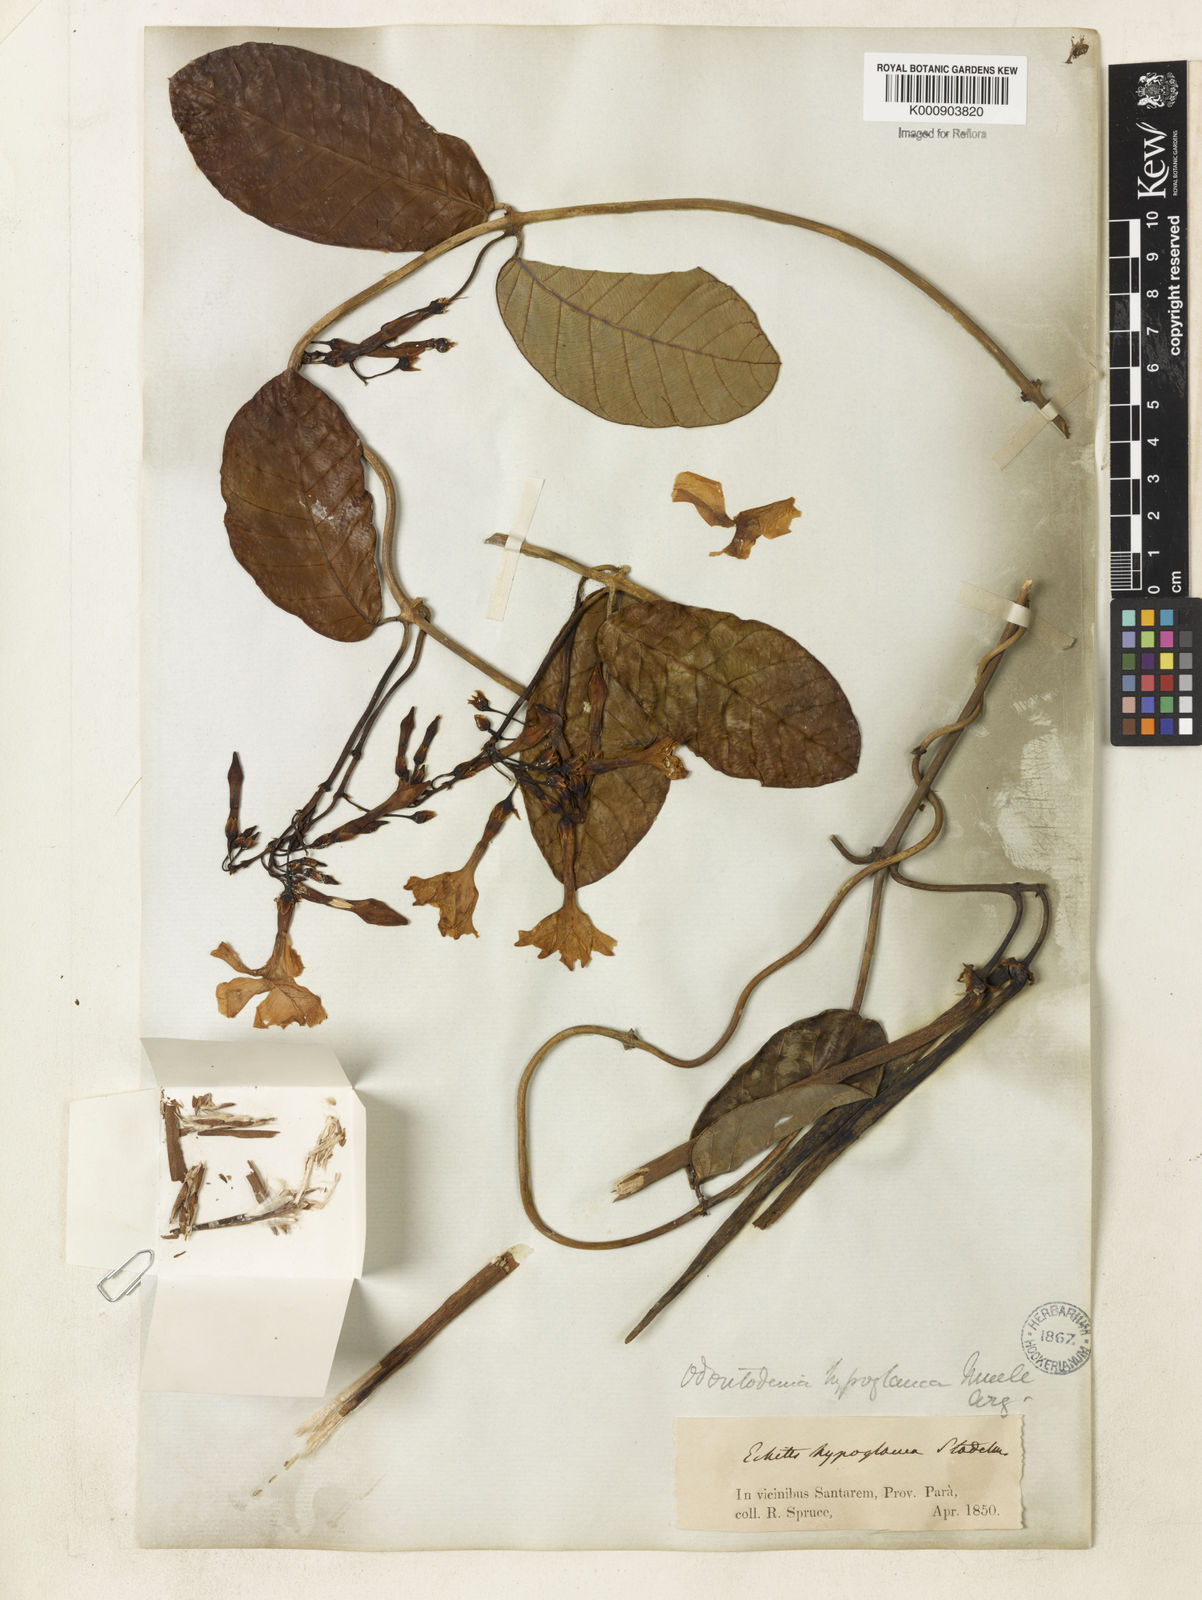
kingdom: Plantae
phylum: Tracheophyta
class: Magnoliopsida
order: Gentianales
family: Apocynaceae
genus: Odontadenia
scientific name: Odontadenia
